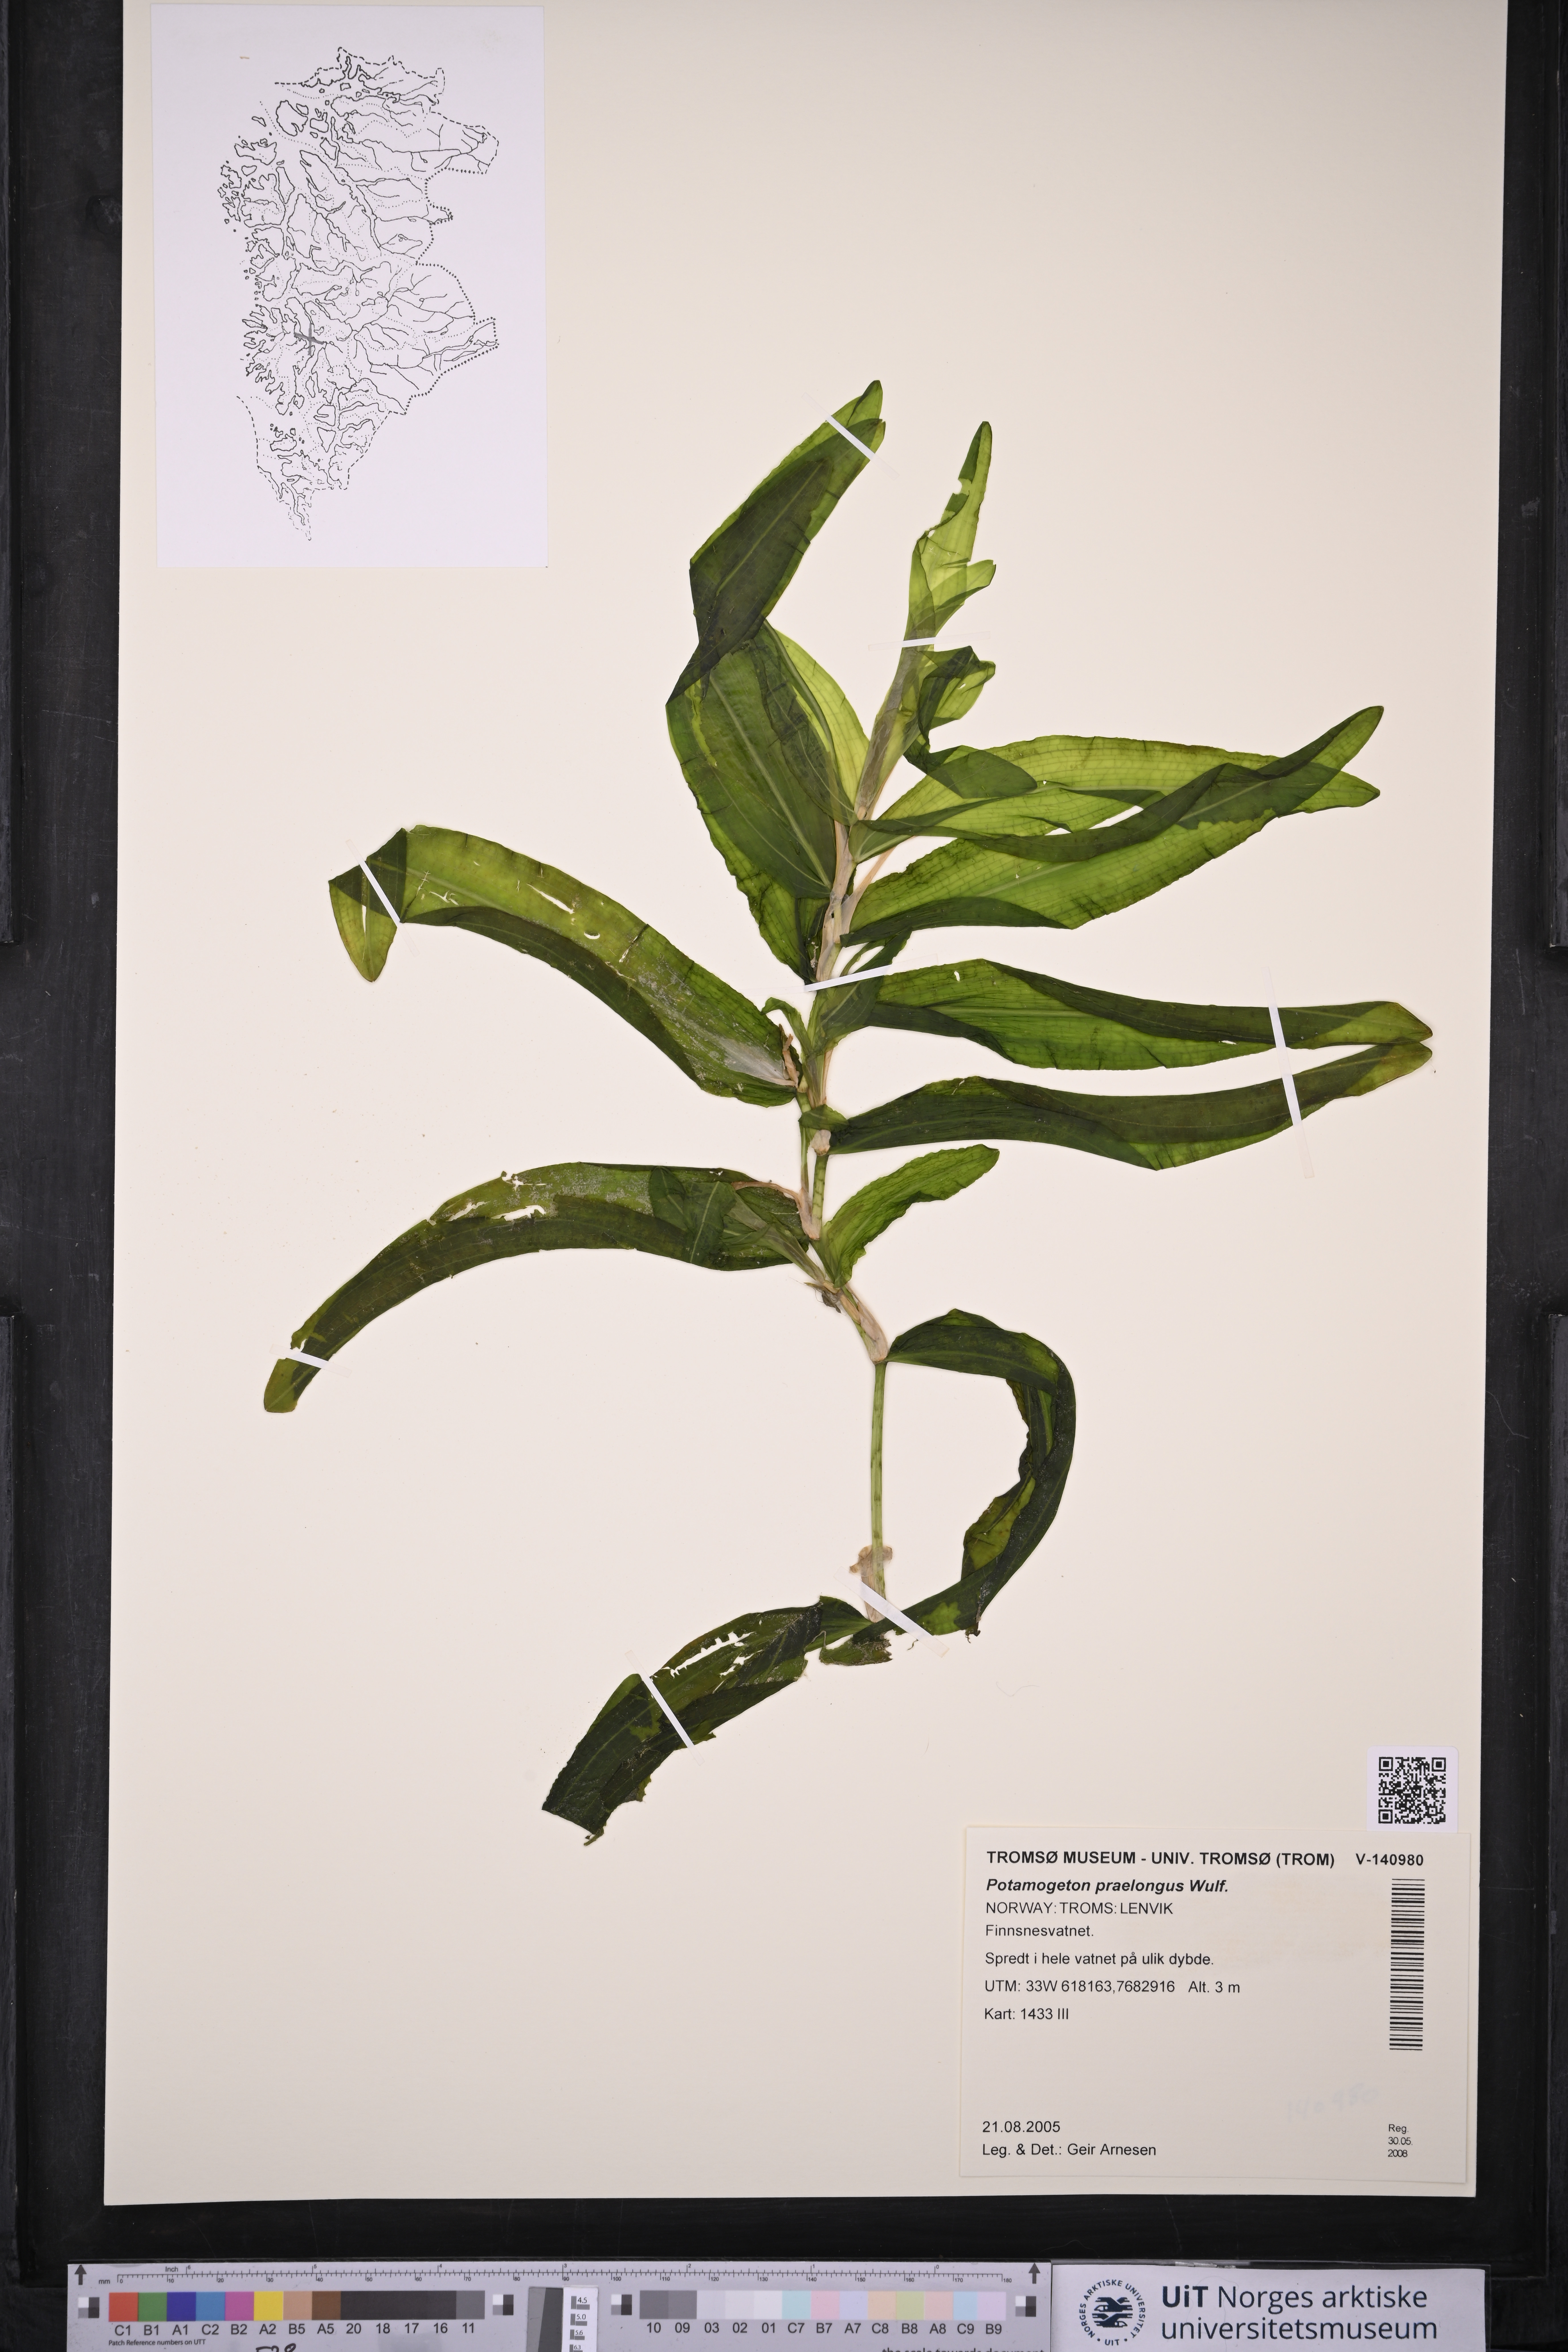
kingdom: Plantae
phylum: Tracheophyta
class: Liliopsida
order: Alismatales
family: Potamogetonaceae
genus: Potamogeton
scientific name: Potamogeton praelongus
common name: Long-stalked pondweed
